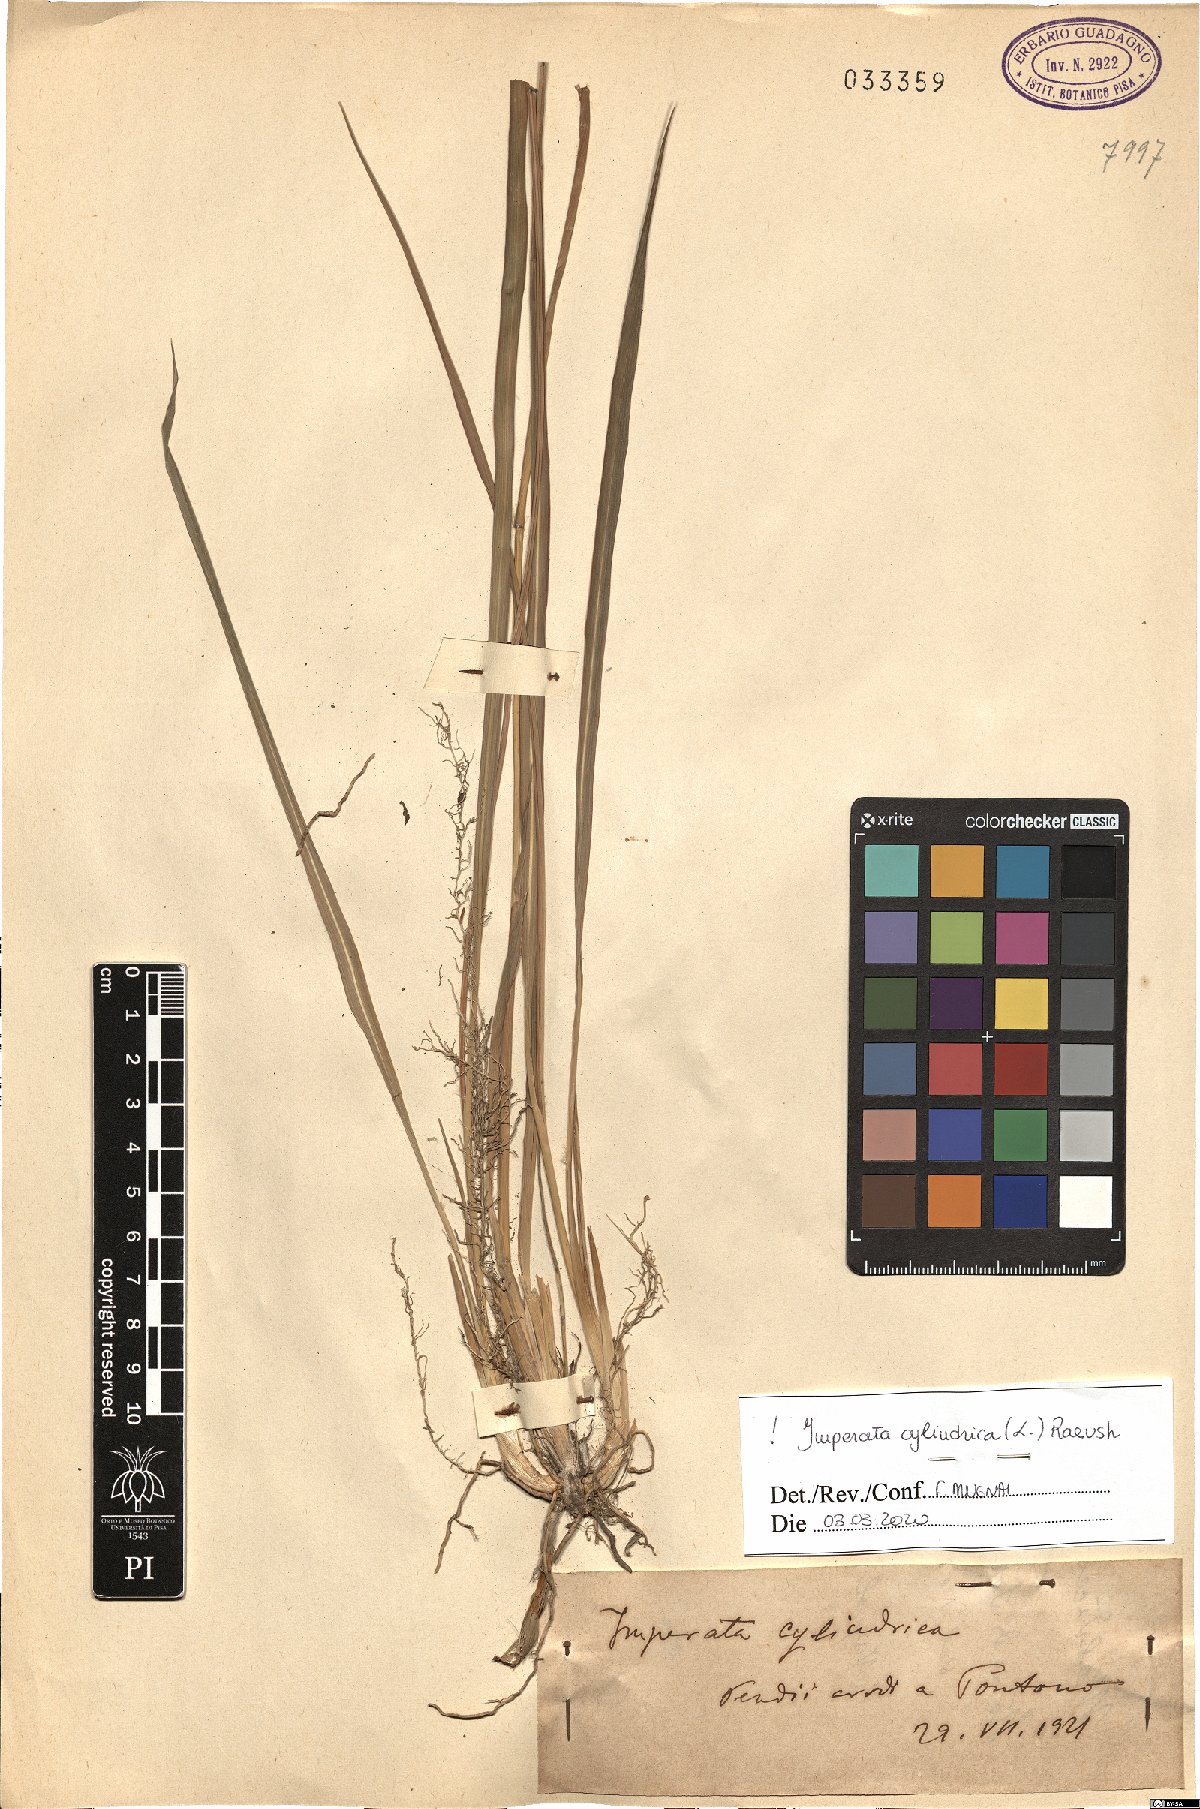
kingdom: Plantae
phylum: Tracheophyta
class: Liliopsida
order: Poales
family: Poaceae
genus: Imperata
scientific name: Imperata cylindrica
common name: Cogongrass
